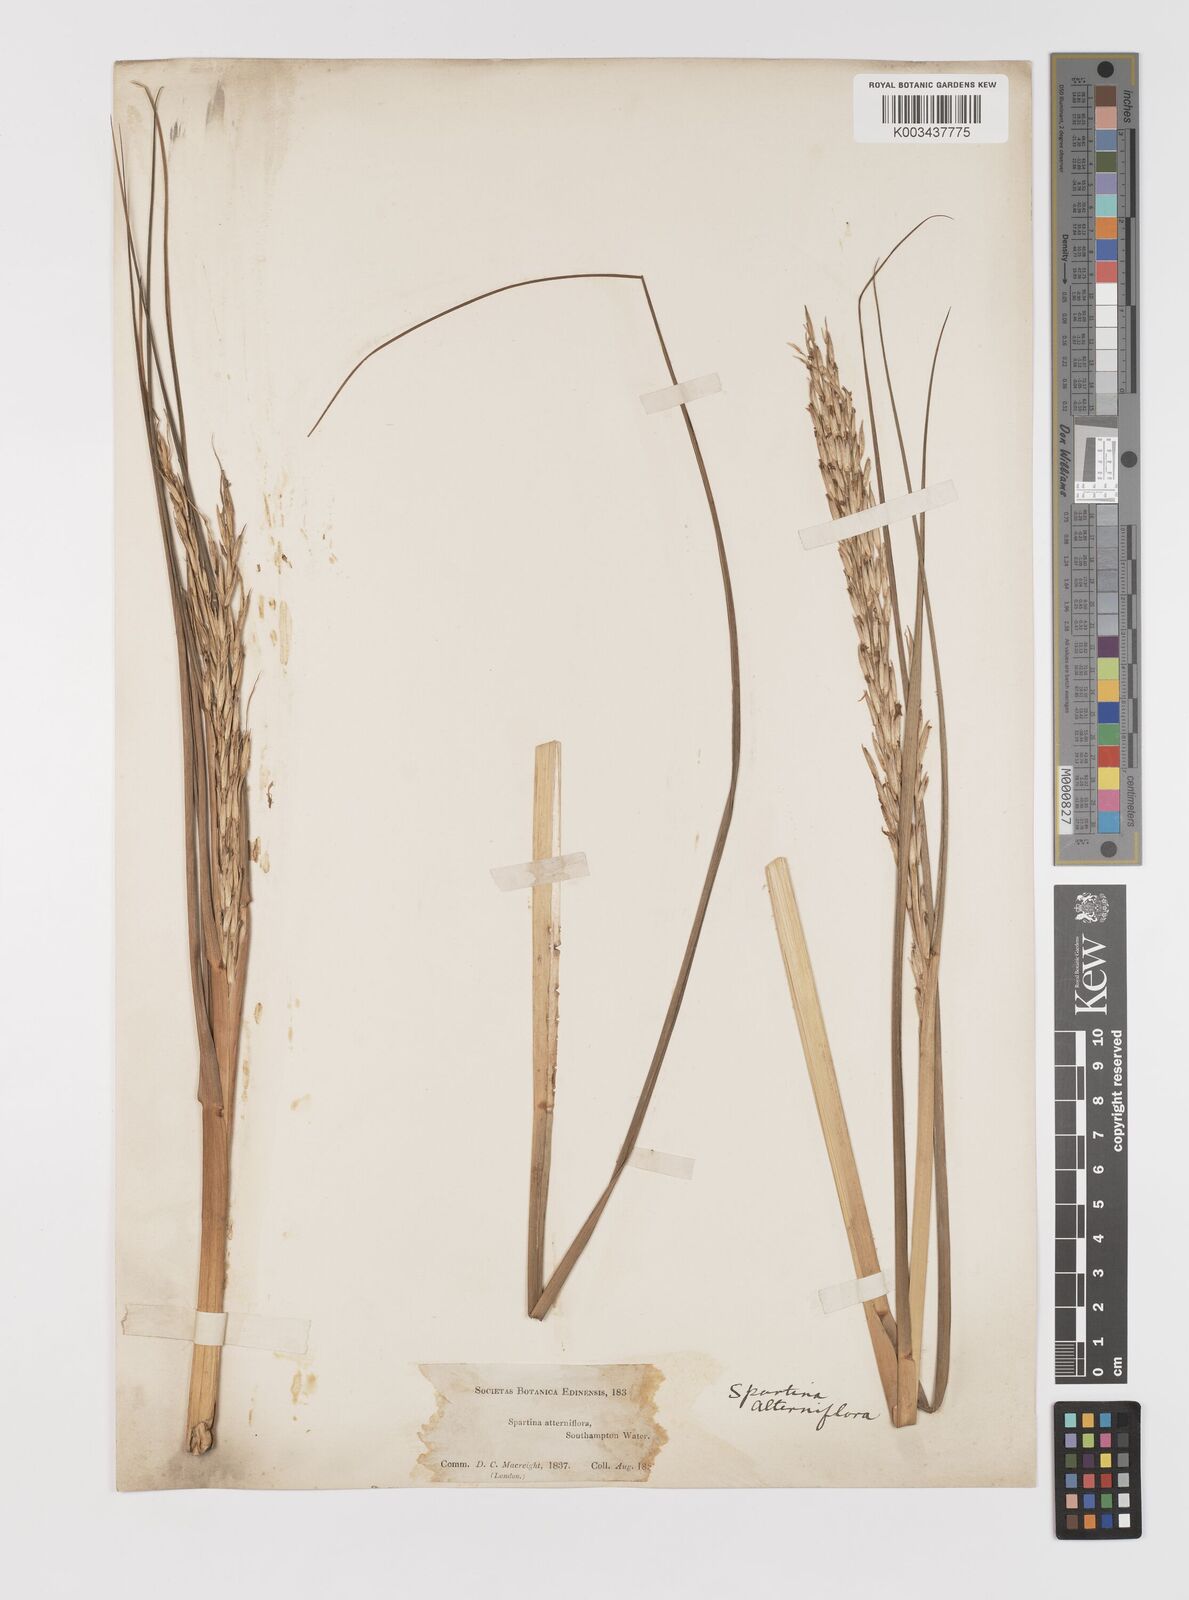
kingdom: Plantae
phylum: Tracheophyta
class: Liliopsida
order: Poales
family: Poaceae
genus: Sporobolus
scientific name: Sporobolus alterniflorus
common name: Atlantic cordgrass
